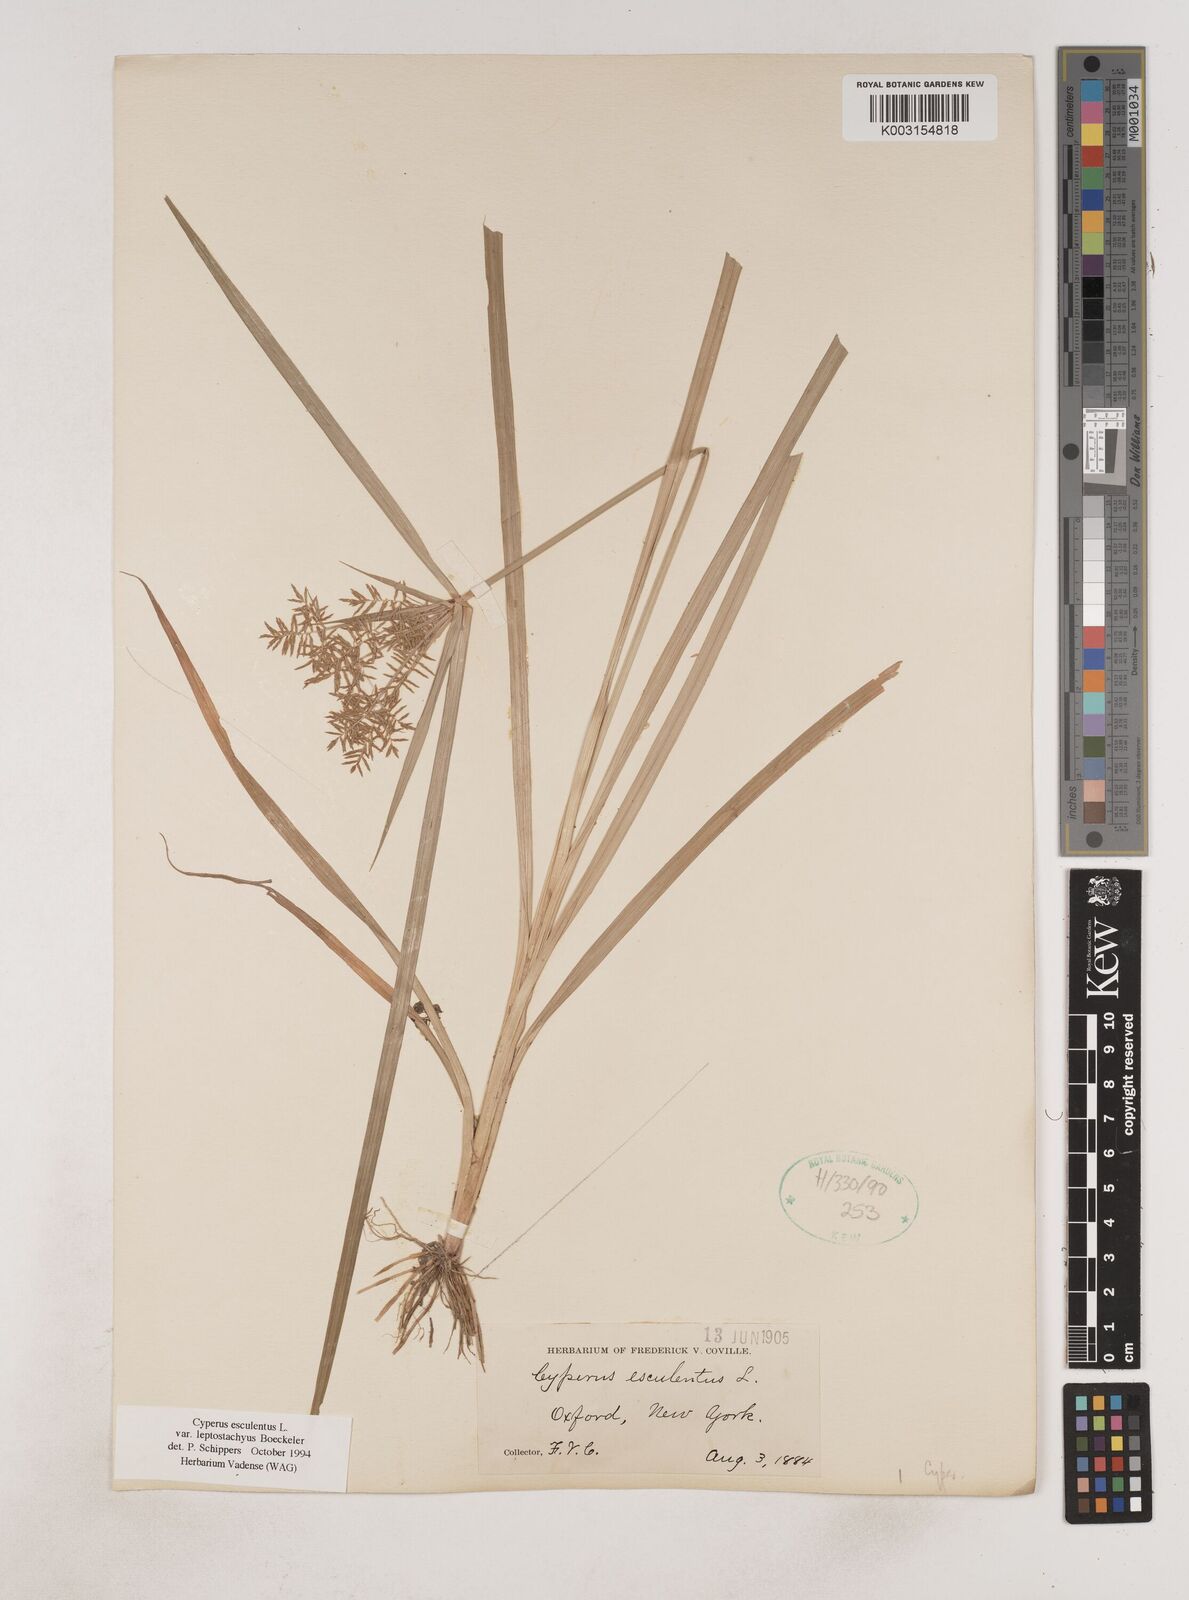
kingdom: Plantae
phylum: Tracheophyta
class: Liliopsida
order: Poales
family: Cyperaceae
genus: Cyperus
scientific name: Cyperus esculentus
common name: Yellow nutsedge
